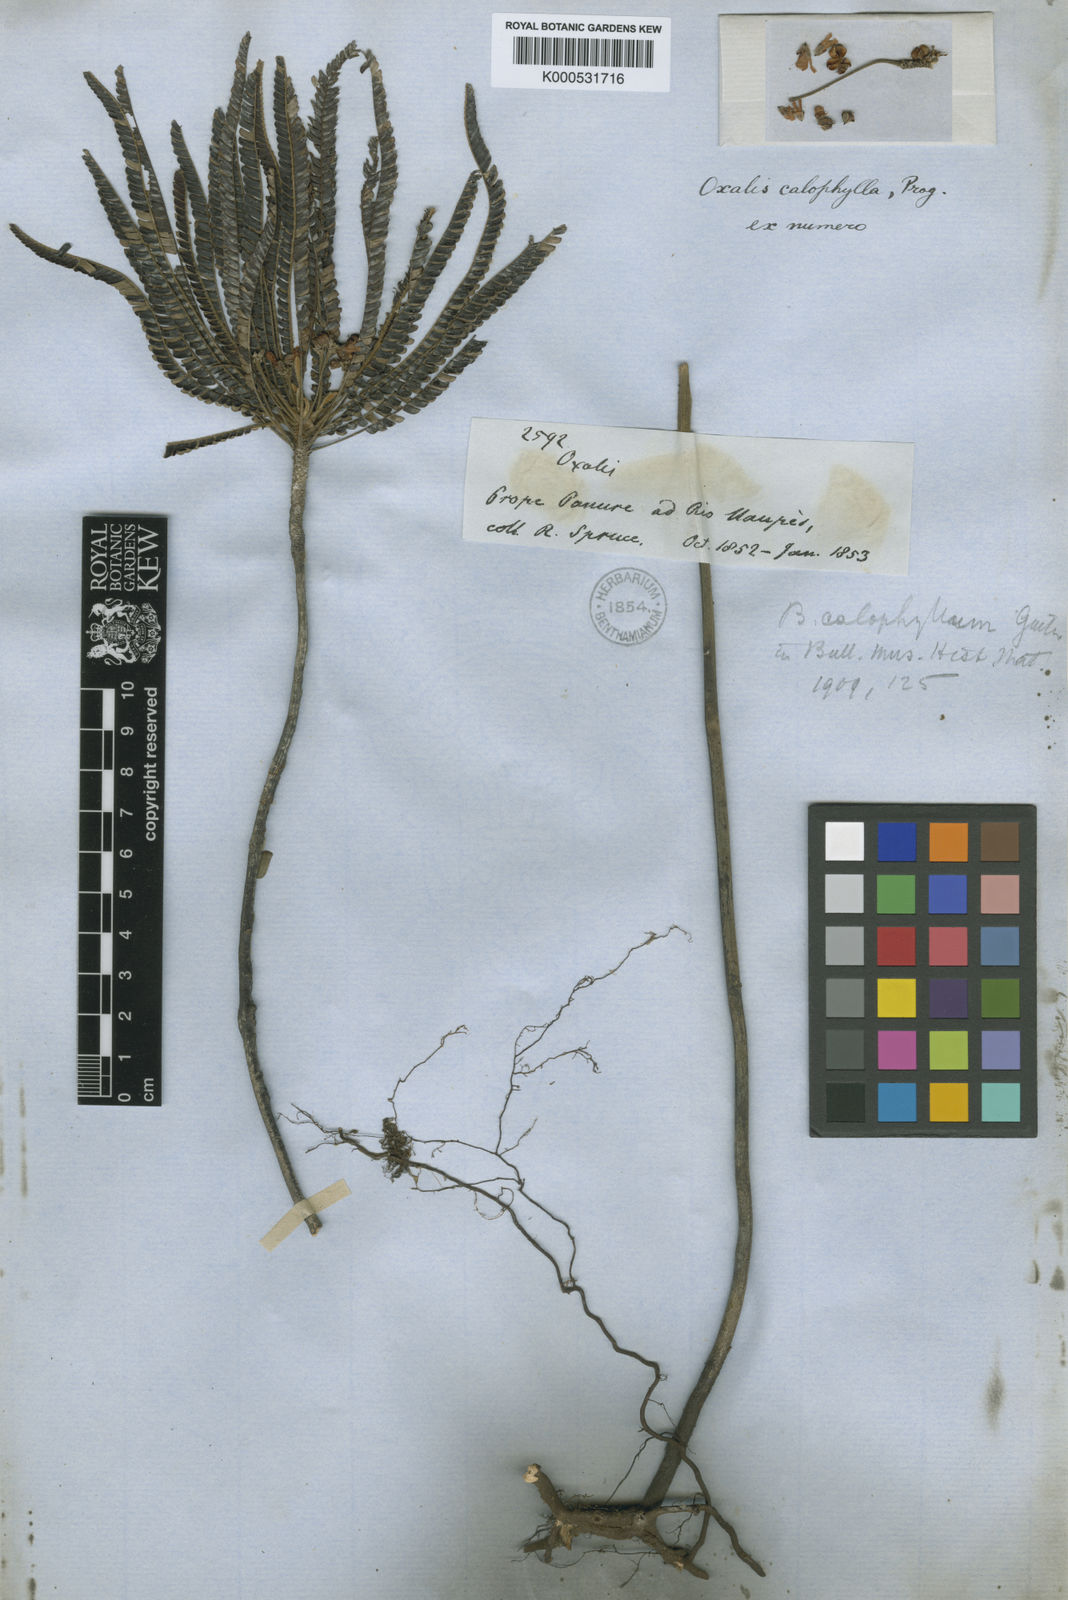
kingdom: Plantae
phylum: Tracheophyta
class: Magnoliopsida
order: Oxalidales
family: Oxalidaceae
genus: Biophytum
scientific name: Biophytum calophyllum
